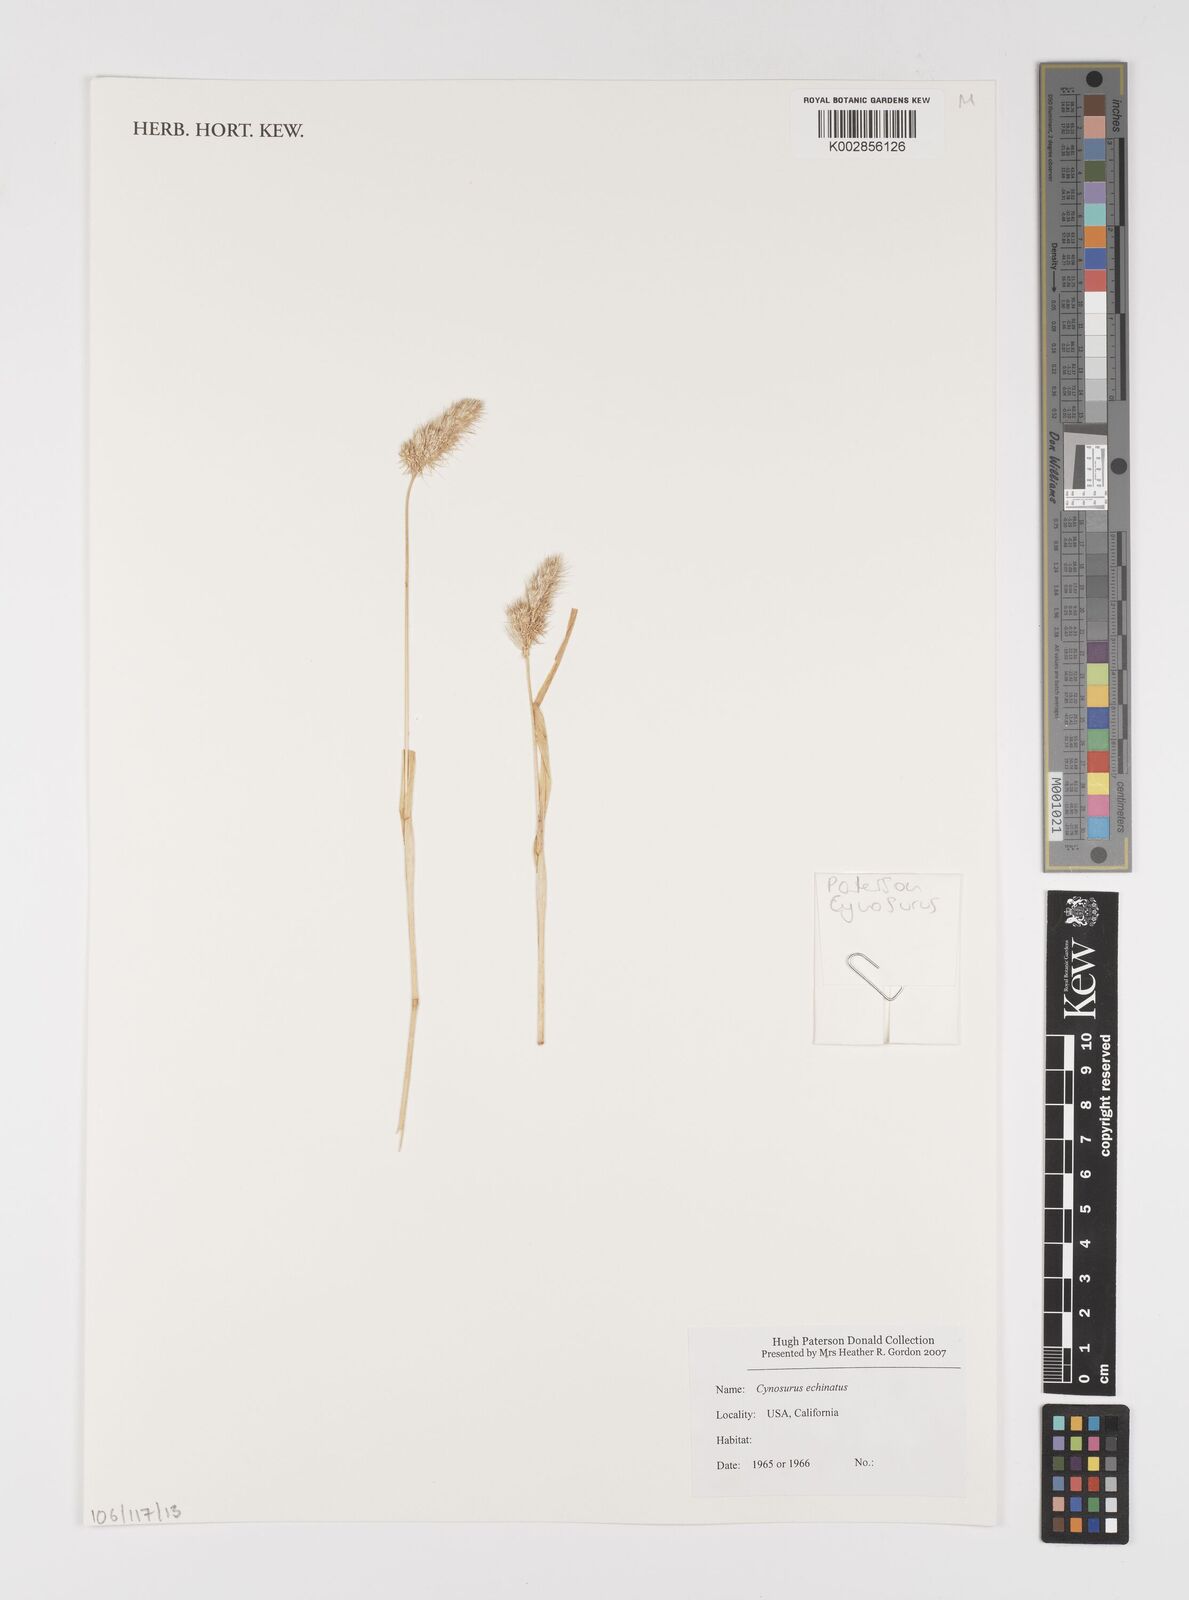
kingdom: Plantae
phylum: Tracheophyta
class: Liliopsida
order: Poales
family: Poaceae
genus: Cynosurus
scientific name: Cynosurus echinatus
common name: Rough dog's-tail
